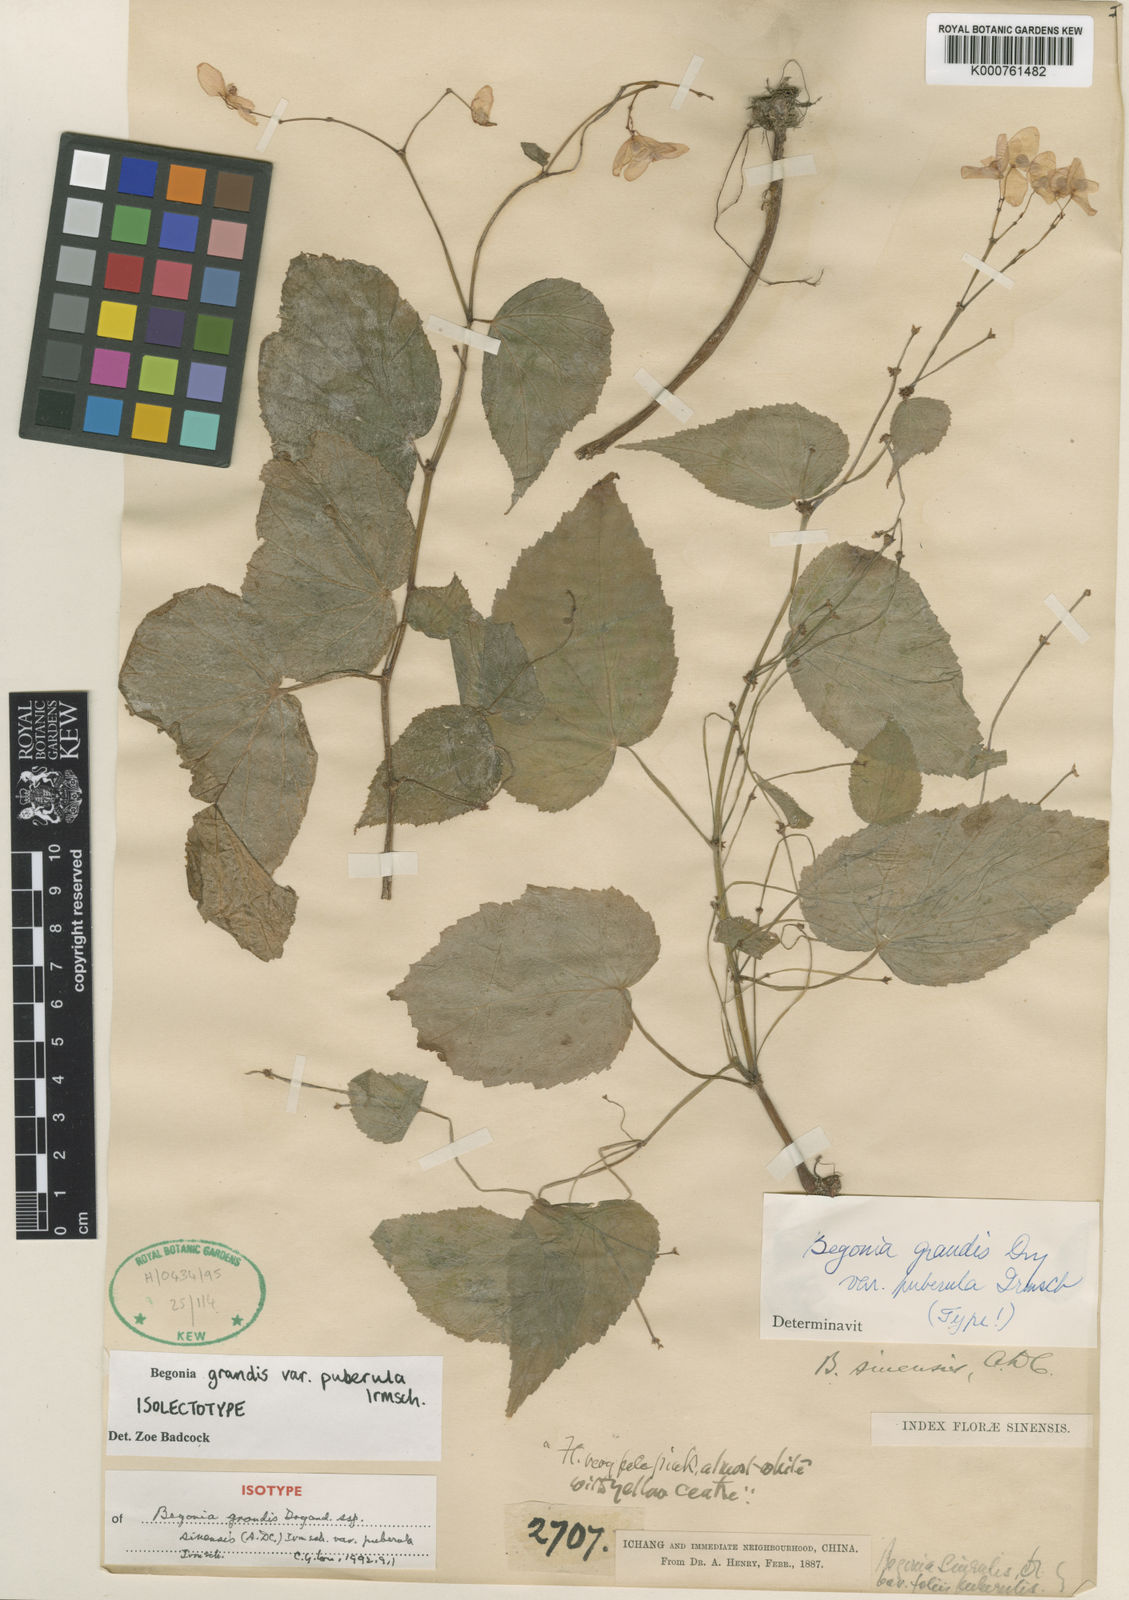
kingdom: Plantae
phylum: Tracheophyta
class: Magnoliopsida
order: Cucurbitales
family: Begoniaceae
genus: Begonia
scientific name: Begonia grandis
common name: Hardy begonia
